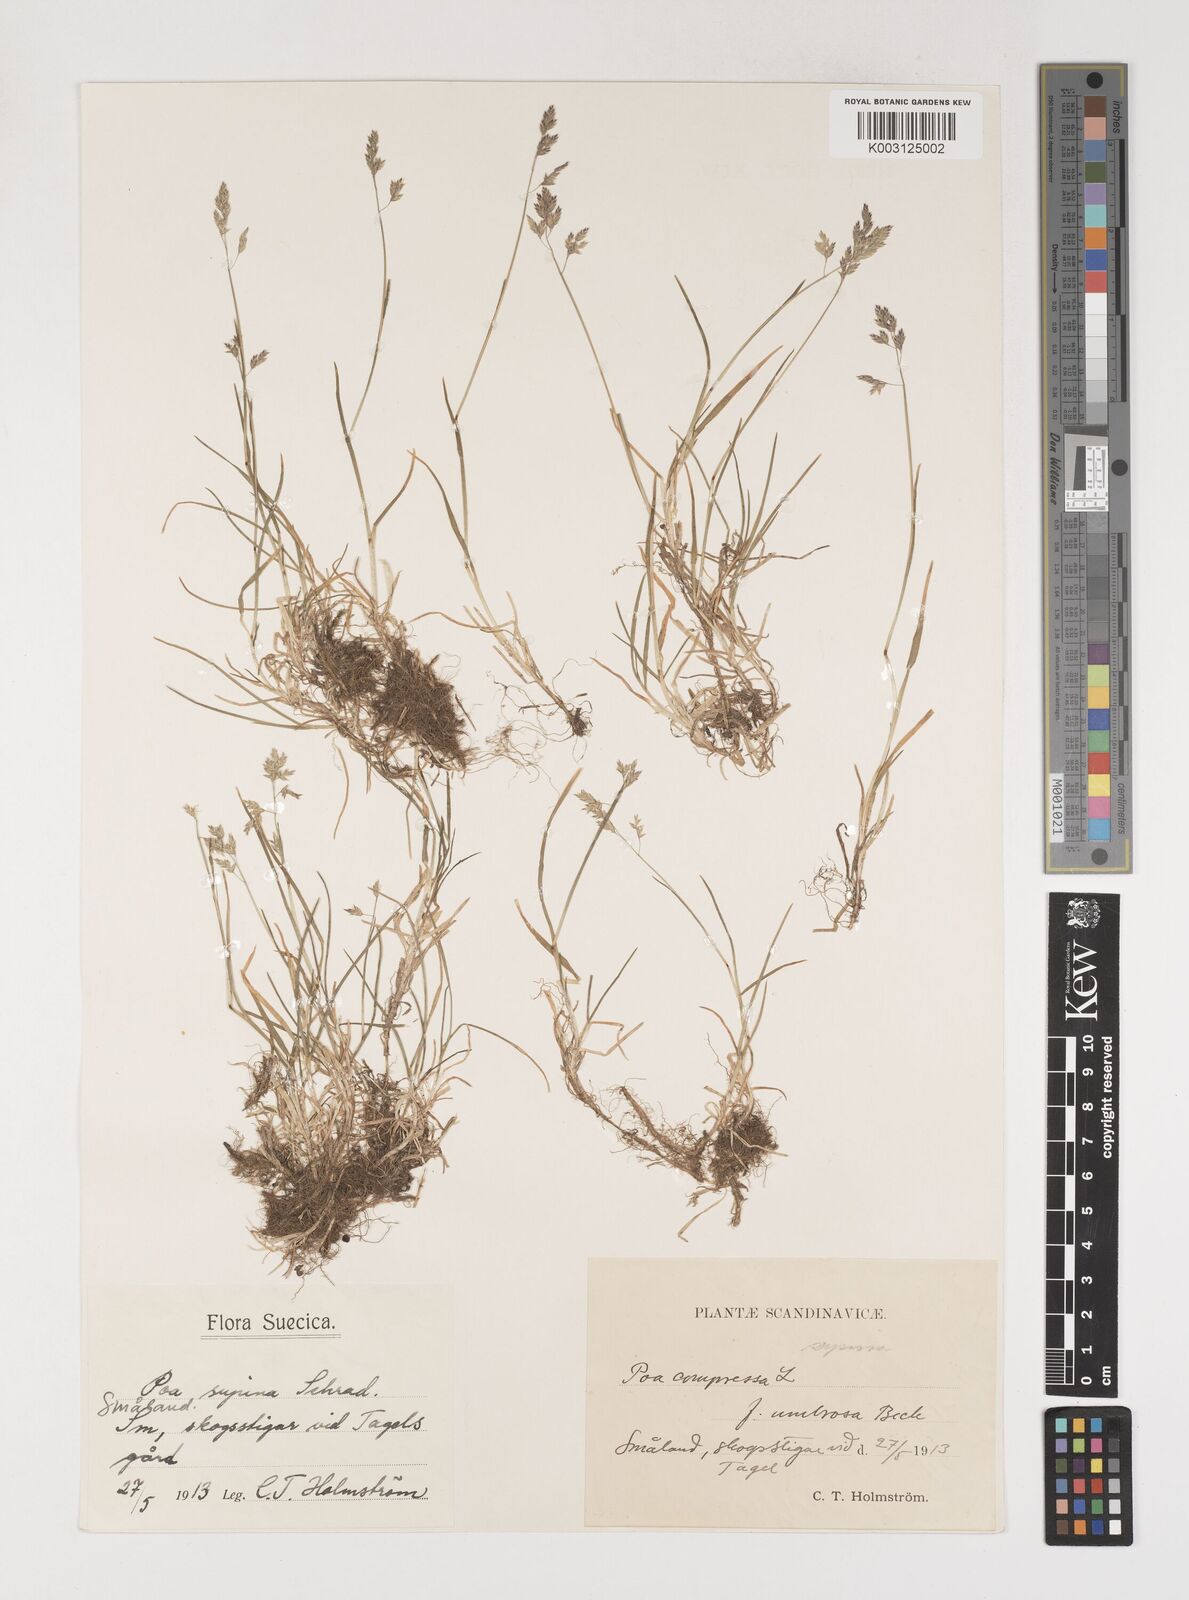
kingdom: Plantae
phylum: Tracheophyta
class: Liliopsida
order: Poales
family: Poaceae
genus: Poa
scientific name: Poa supina
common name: Supina bluegrass
